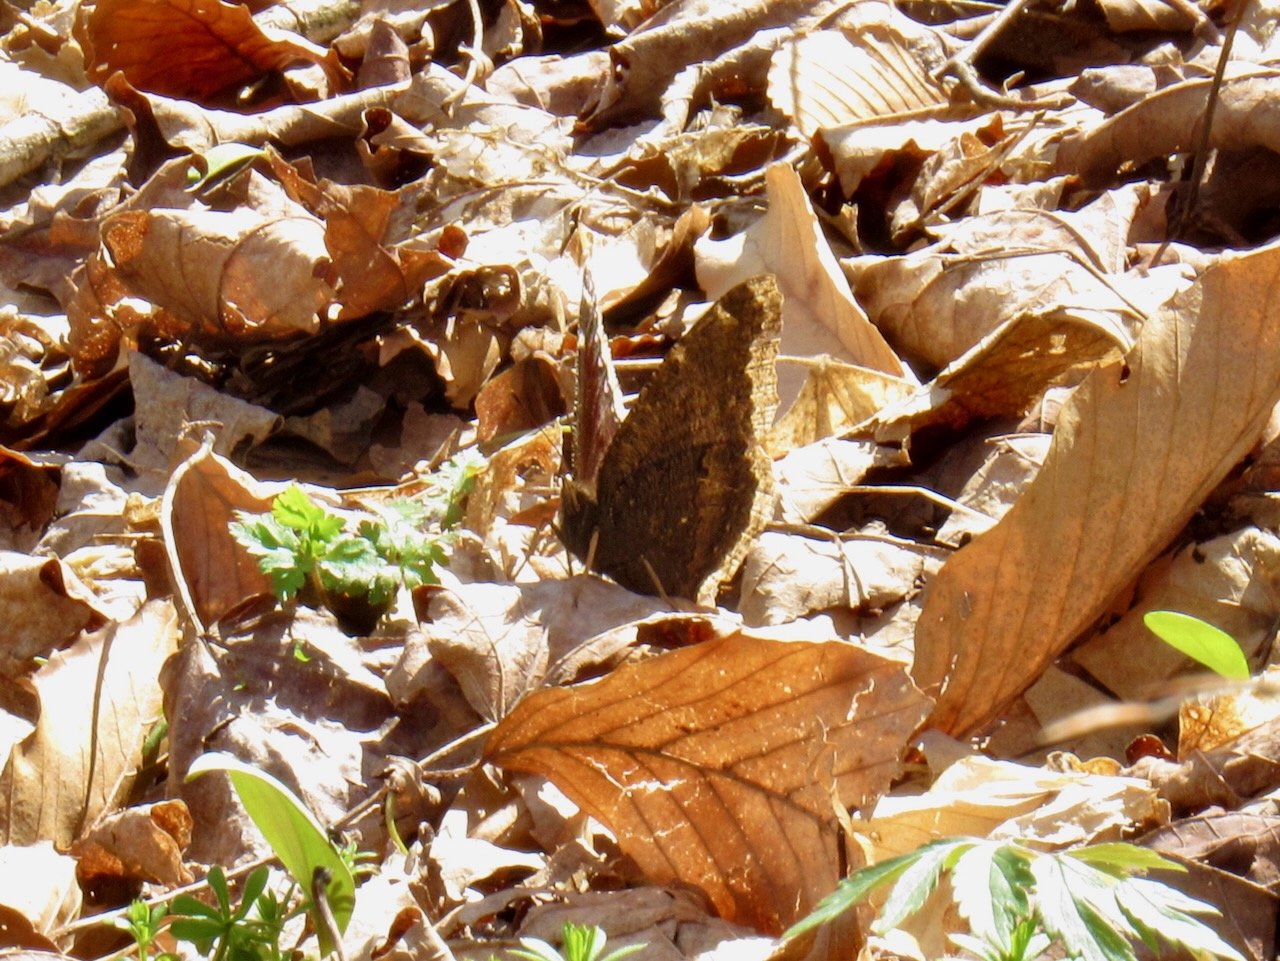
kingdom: Animalia
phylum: Arthropoda
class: Insecta
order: Lepidoptera
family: Nymphalidae
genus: Nymphalis
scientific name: Nymphalis antiopa
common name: Mourning Cloak
